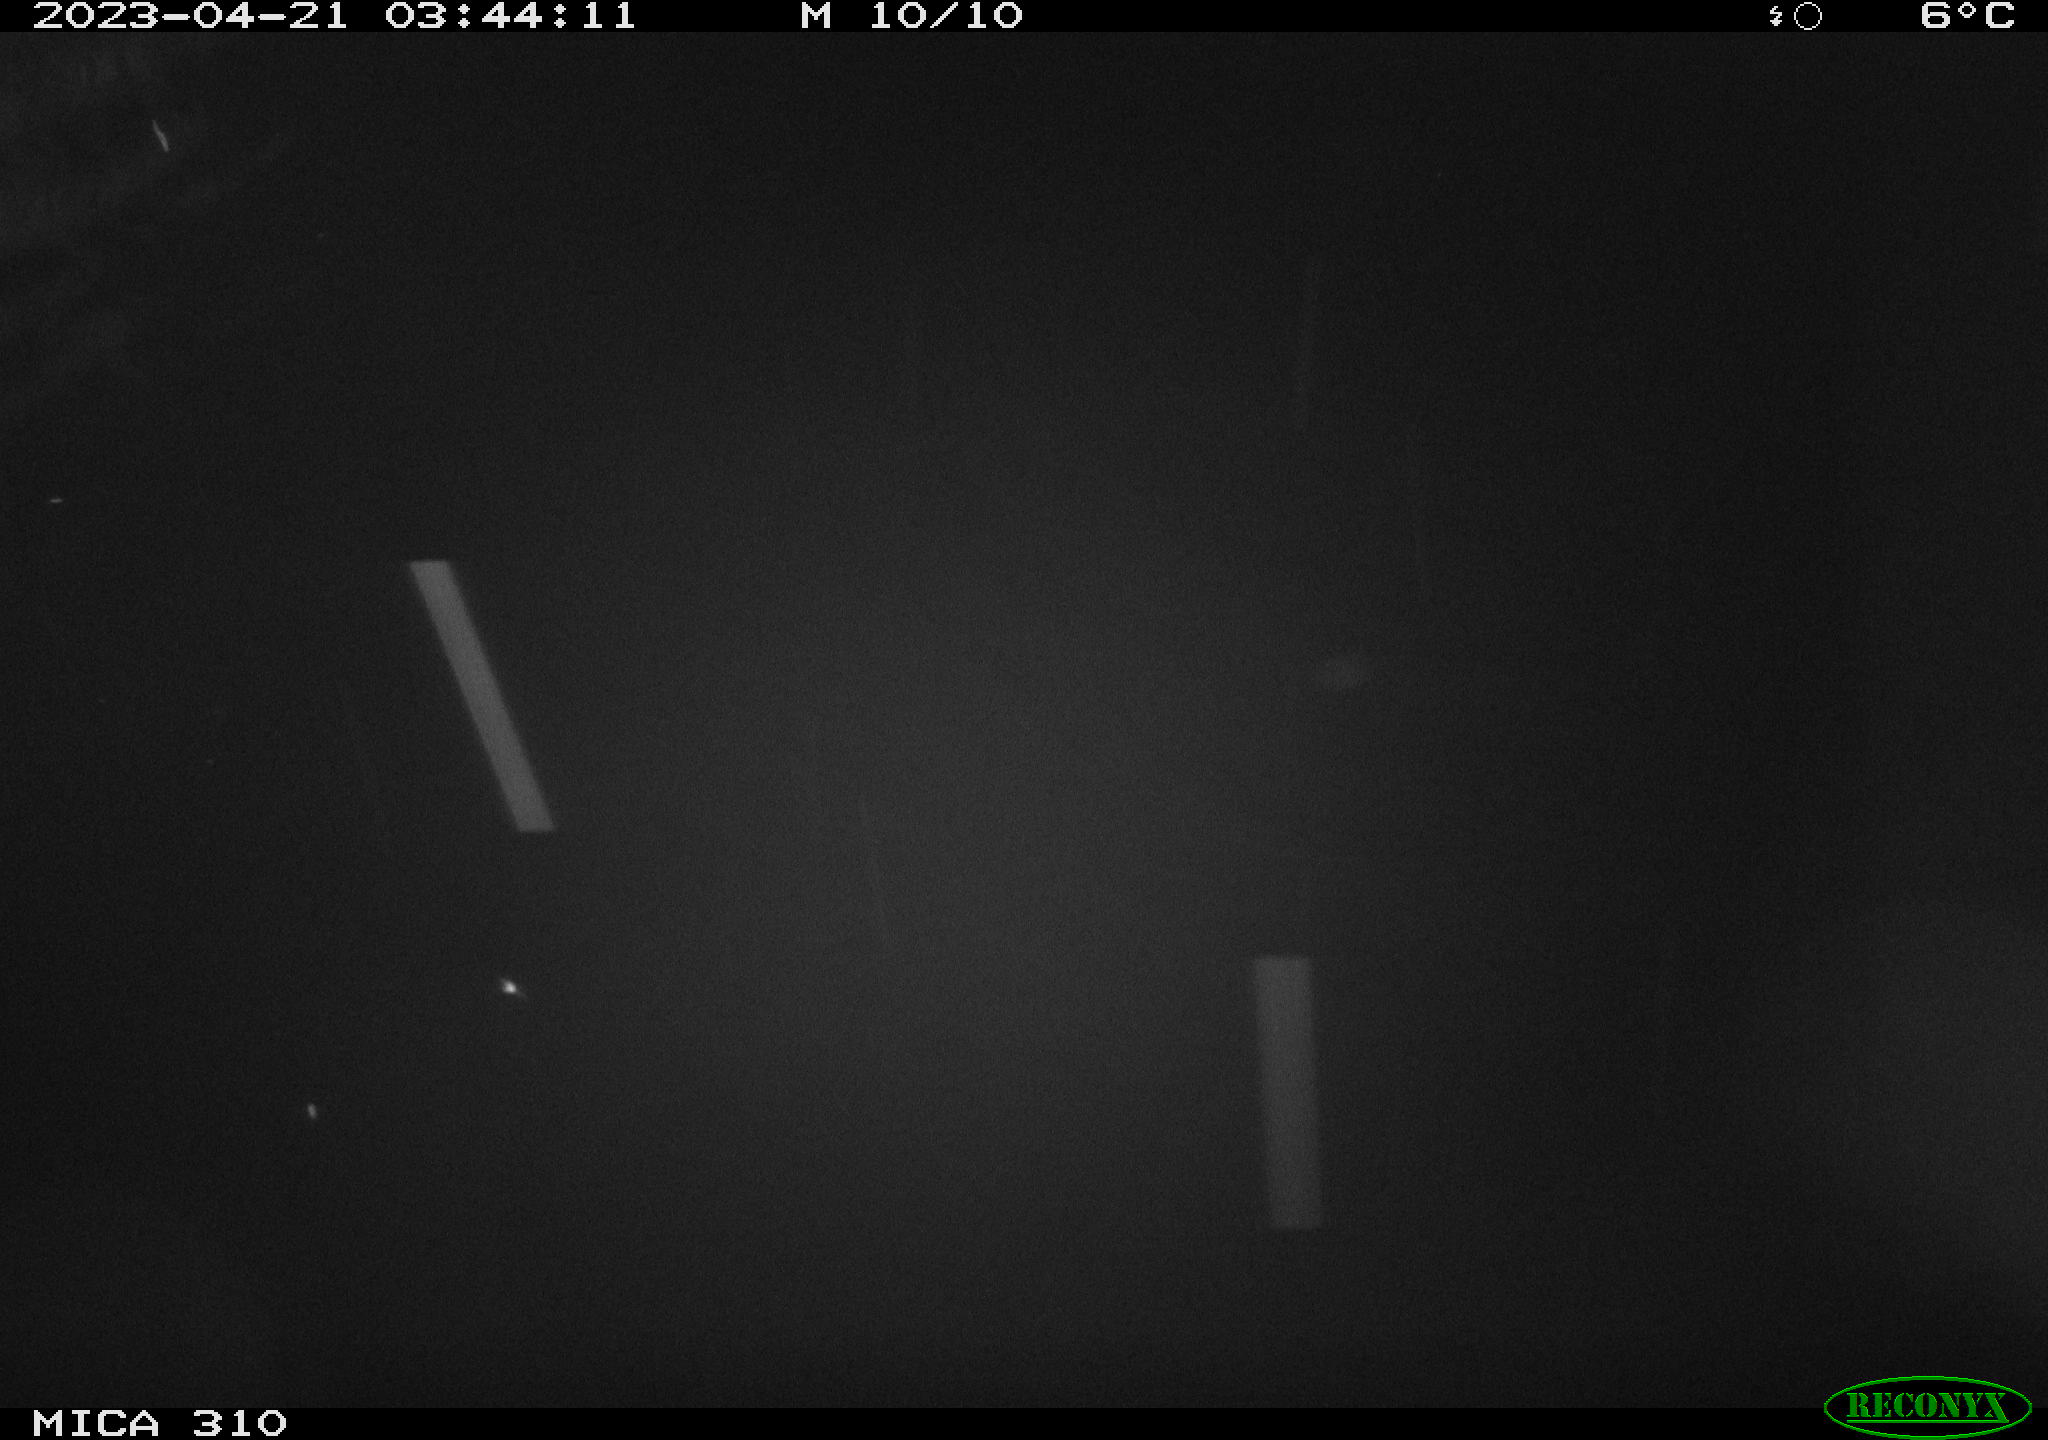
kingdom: Animalia
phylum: Chordata
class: Mammalia
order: Rodentia
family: Cricetidae
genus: Ondatra
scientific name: Ondatra zibethicus
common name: Muskrat
